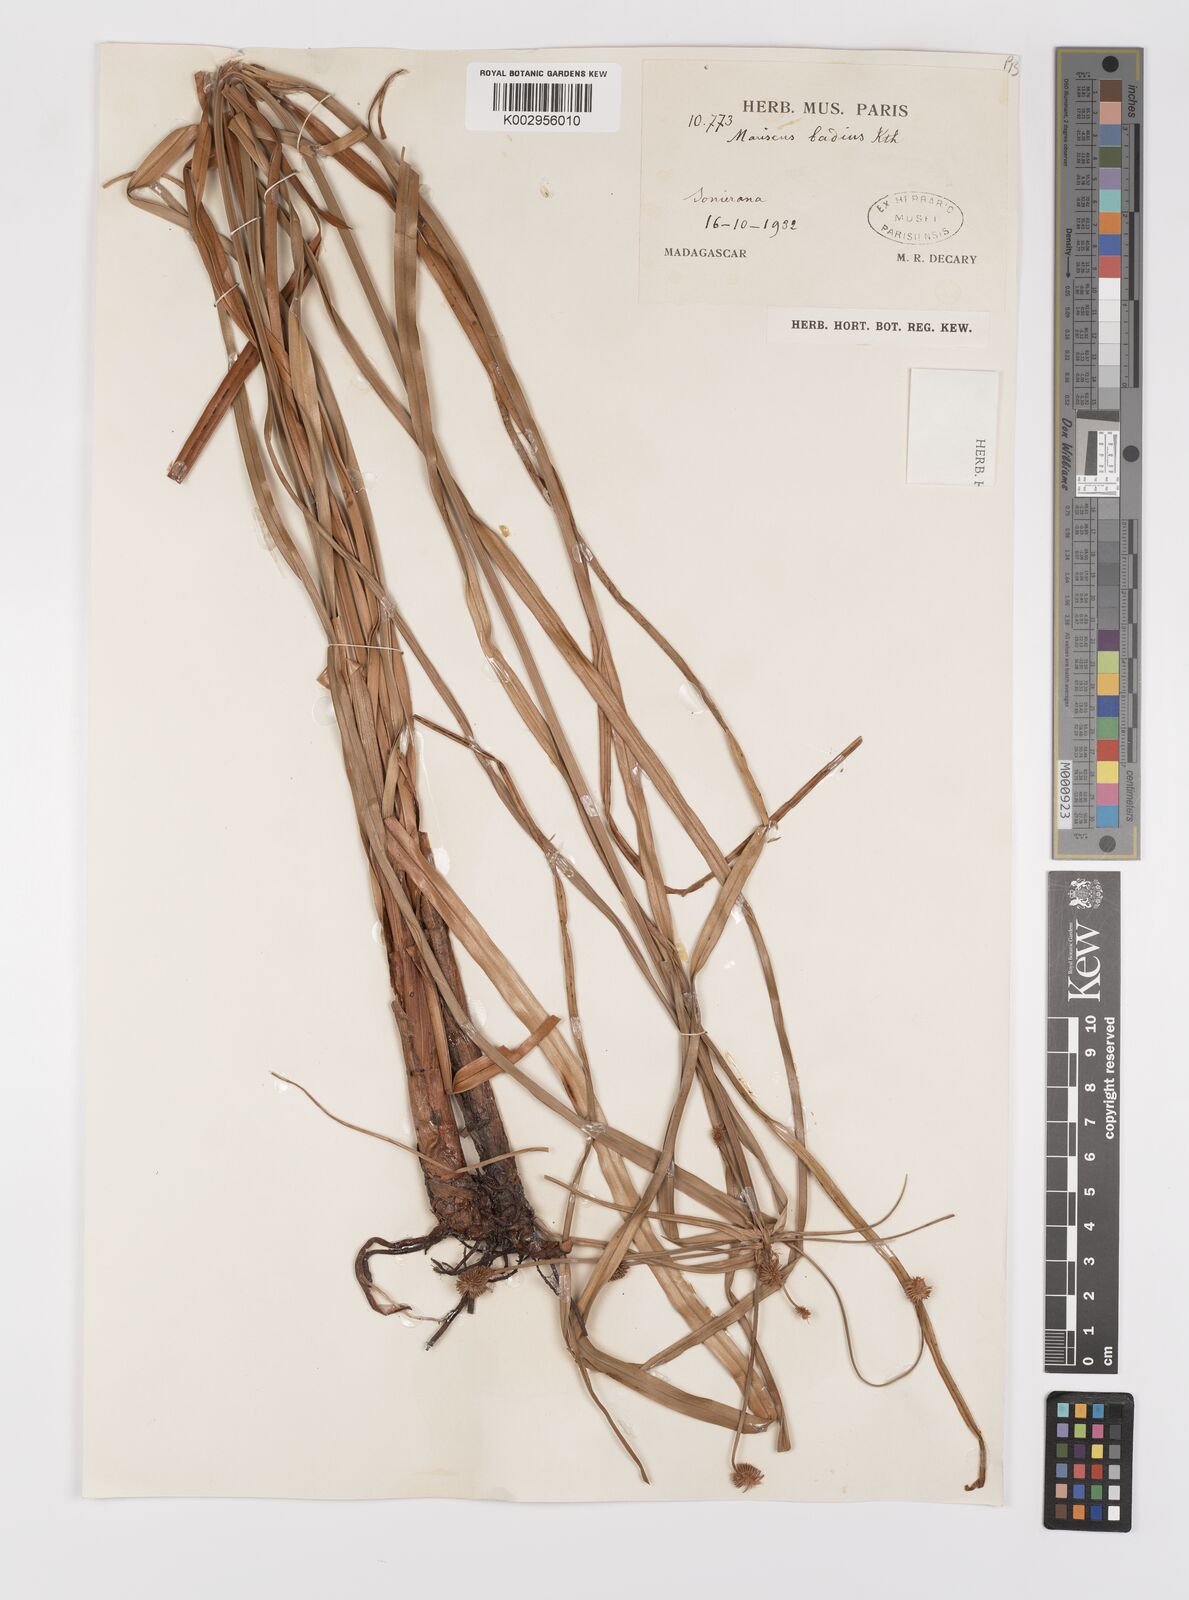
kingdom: Plantae
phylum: Tracheophyta
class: Liliopsida
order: Poales
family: Cyperaceae
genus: Cyperus
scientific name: Cyperus subbadius
